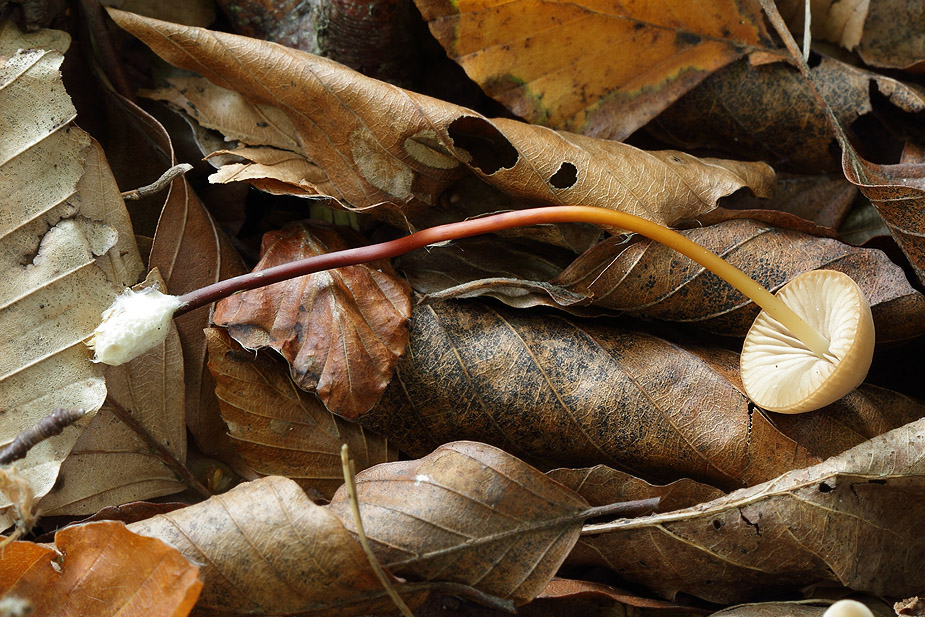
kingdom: Fungi
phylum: Basidiomycota
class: Agaricomycetes
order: Agaricales
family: Marasmiaceae
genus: Marasmius
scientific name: Marasmius cohaerens
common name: hornstokket bruskhat
